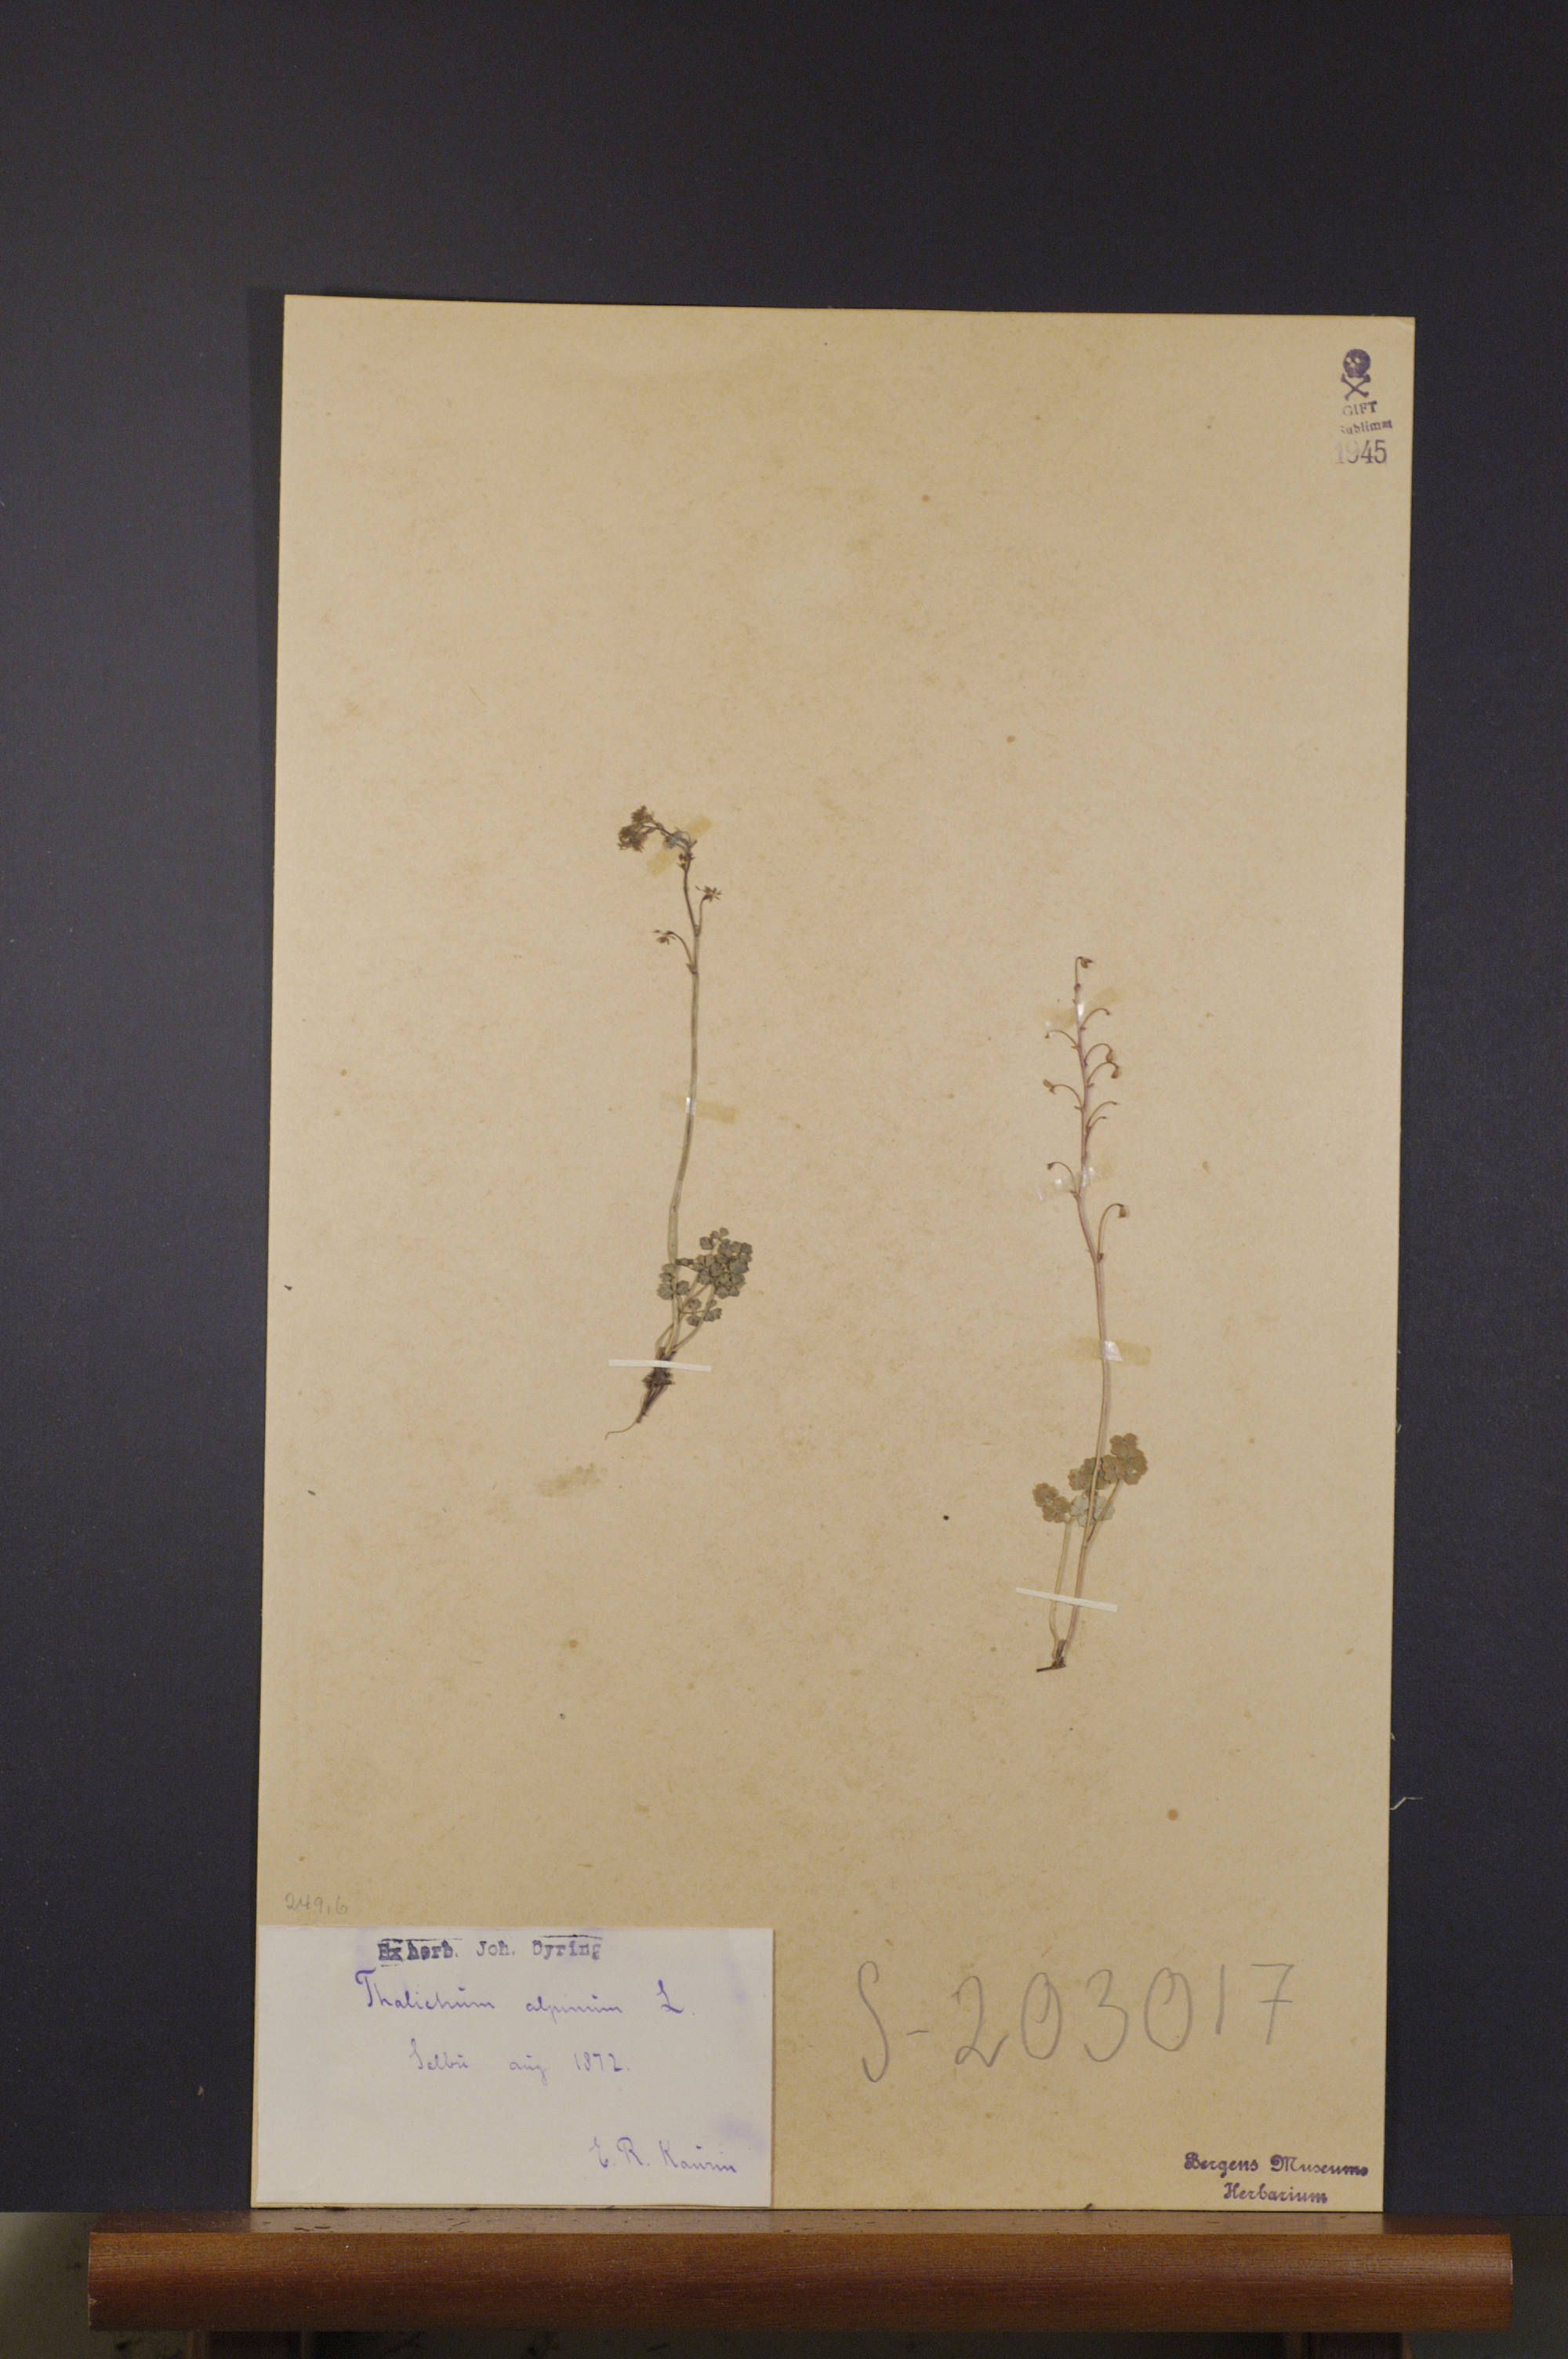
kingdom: Plantae
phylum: Tracheophyta
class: Magnoliopsida
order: Ranunculales
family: Ranunculaceae
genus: Thalictrum
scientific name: Thalictrum alpinum
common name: Alpine meadow-rue
